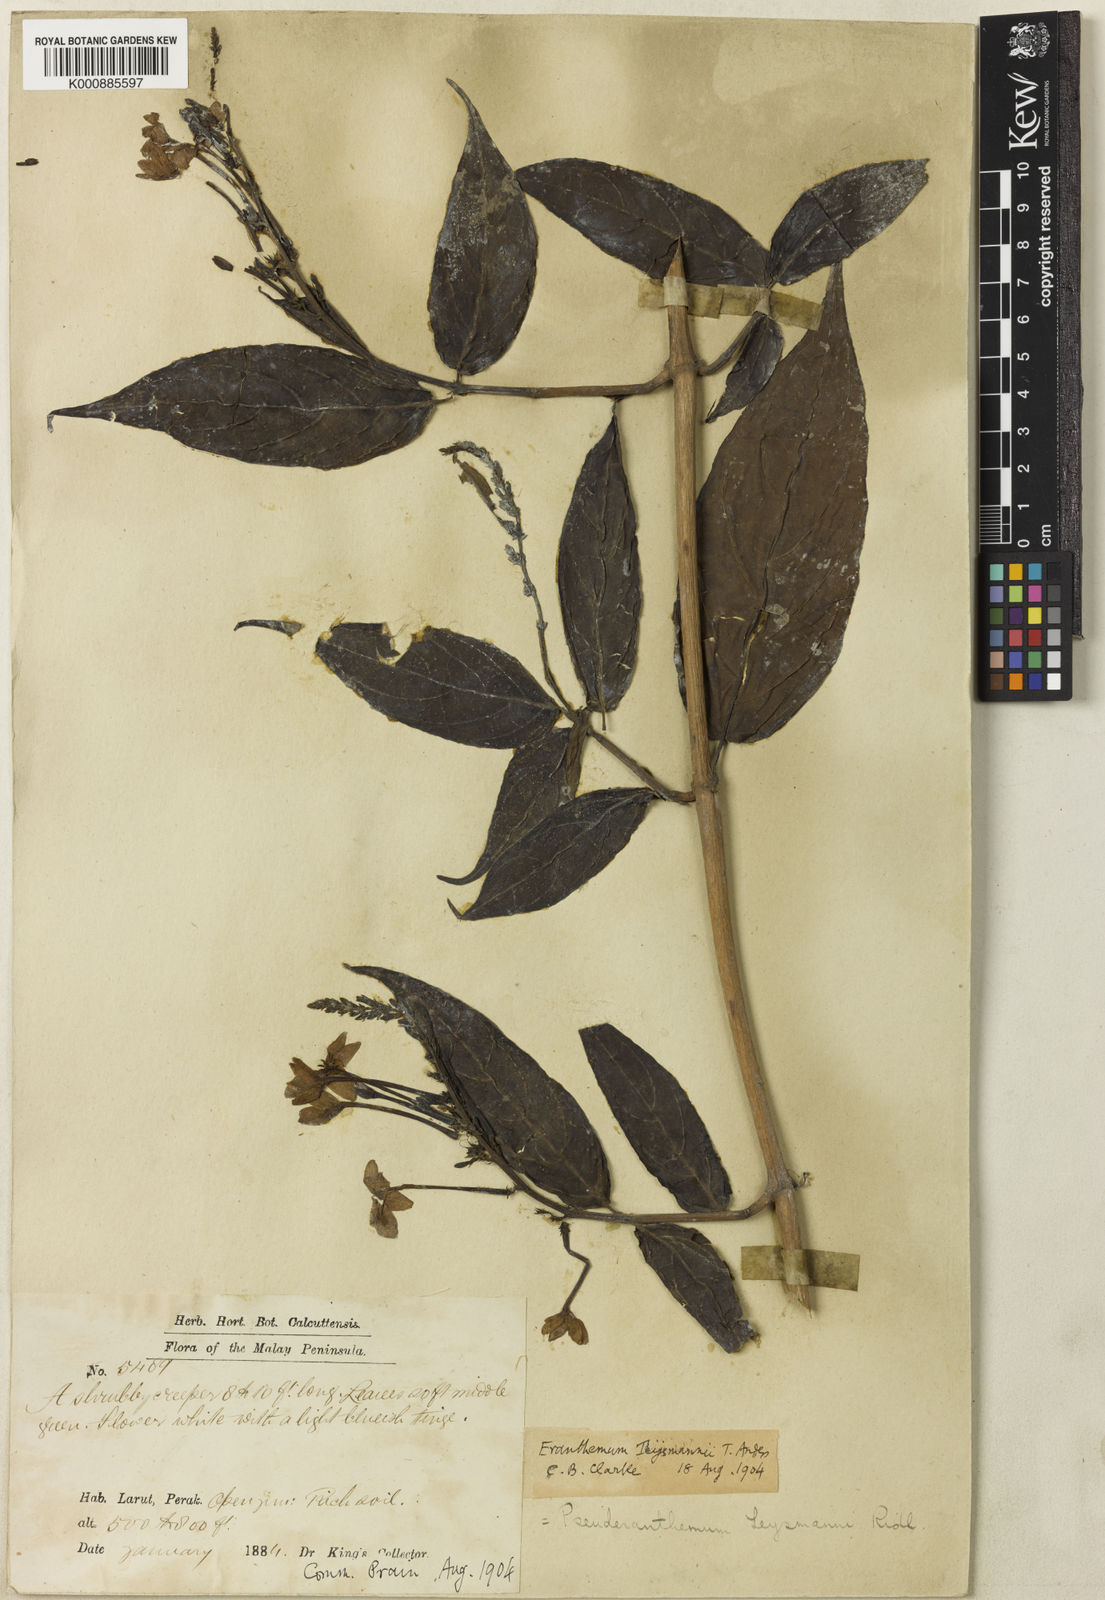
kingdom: Plantae
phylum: Tracheophyta
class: Magnoliopsida
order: Lamiales
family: Acanthaceae
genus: Pseuderanthemum
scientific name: Pseuderanthemum
